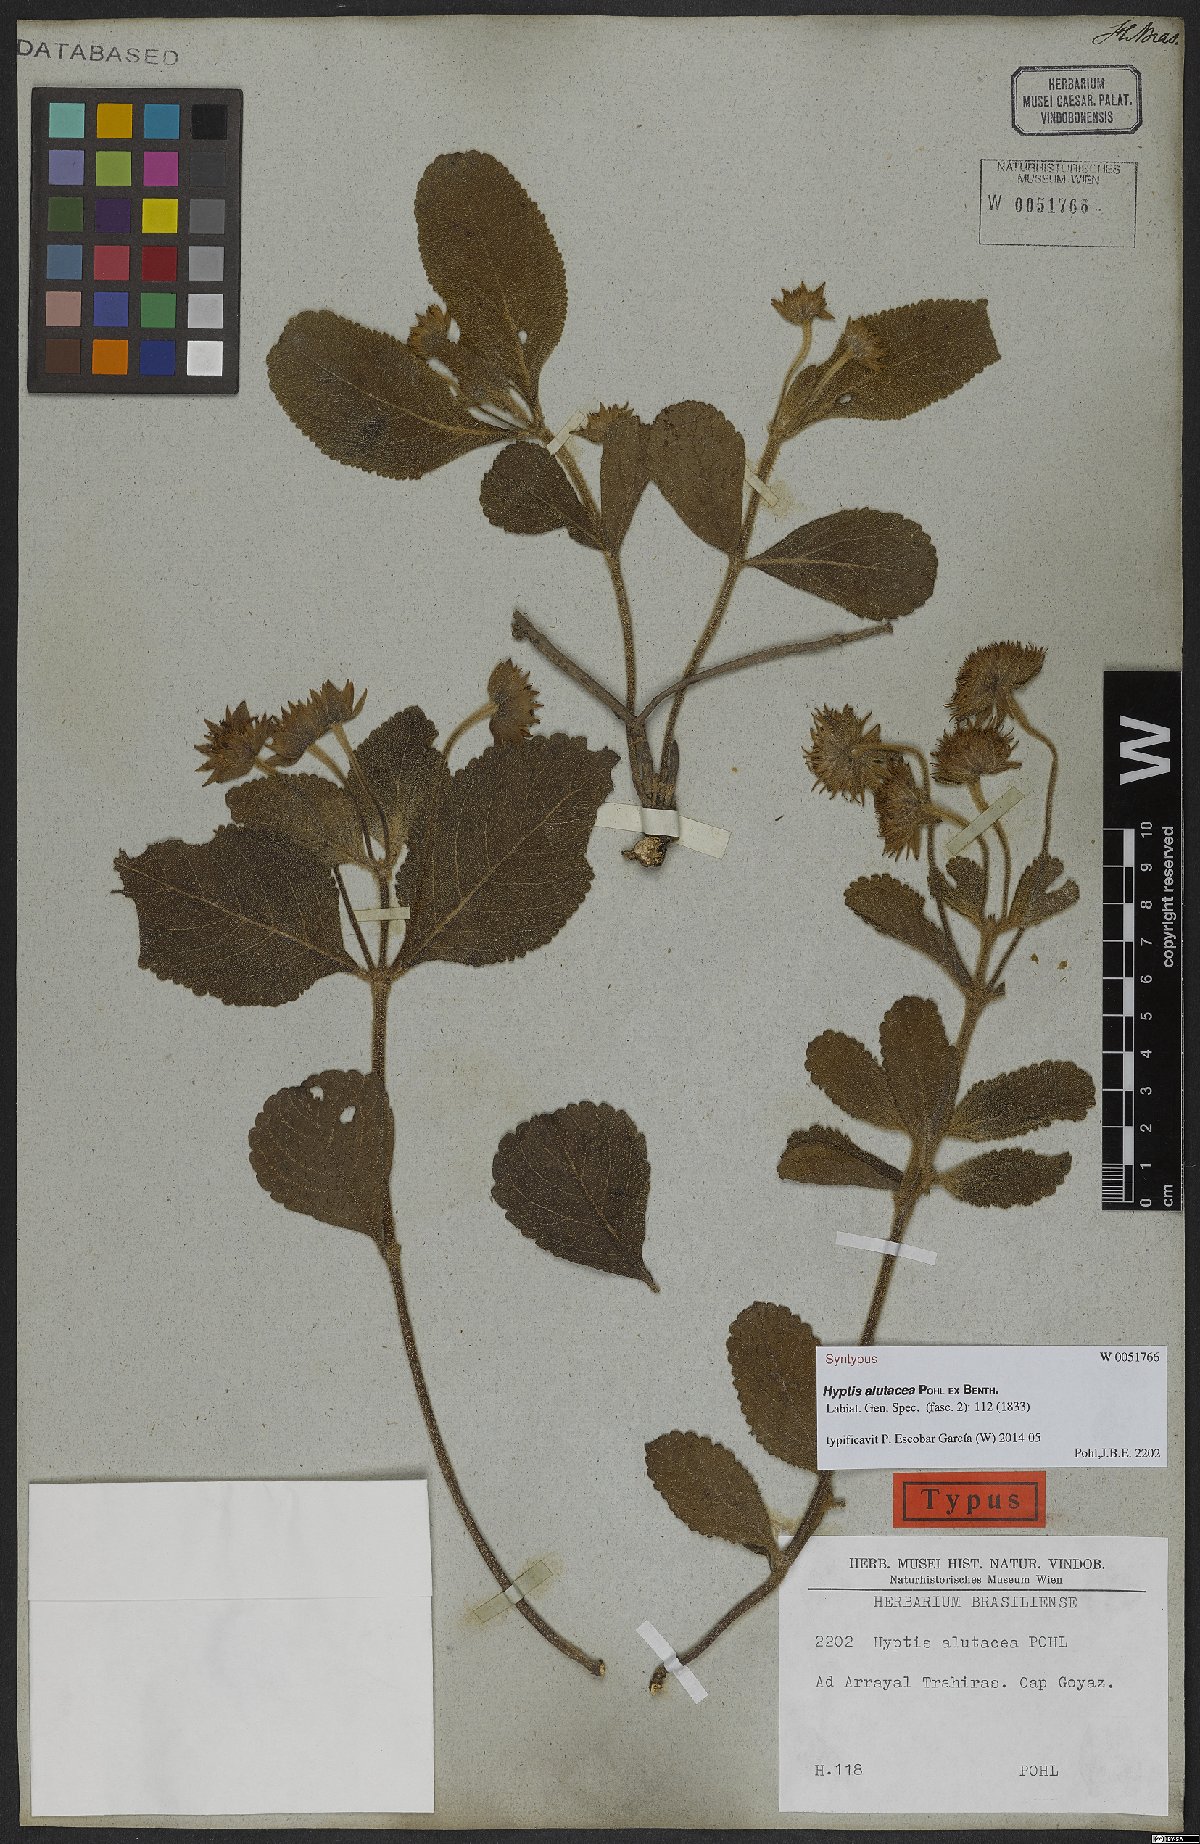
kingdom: Plantae
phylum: Tracheophyta
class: Magnoliopsida
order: Lamiales
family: Lamiaceae
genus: Hyptis
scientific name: Hyptis alutacea
